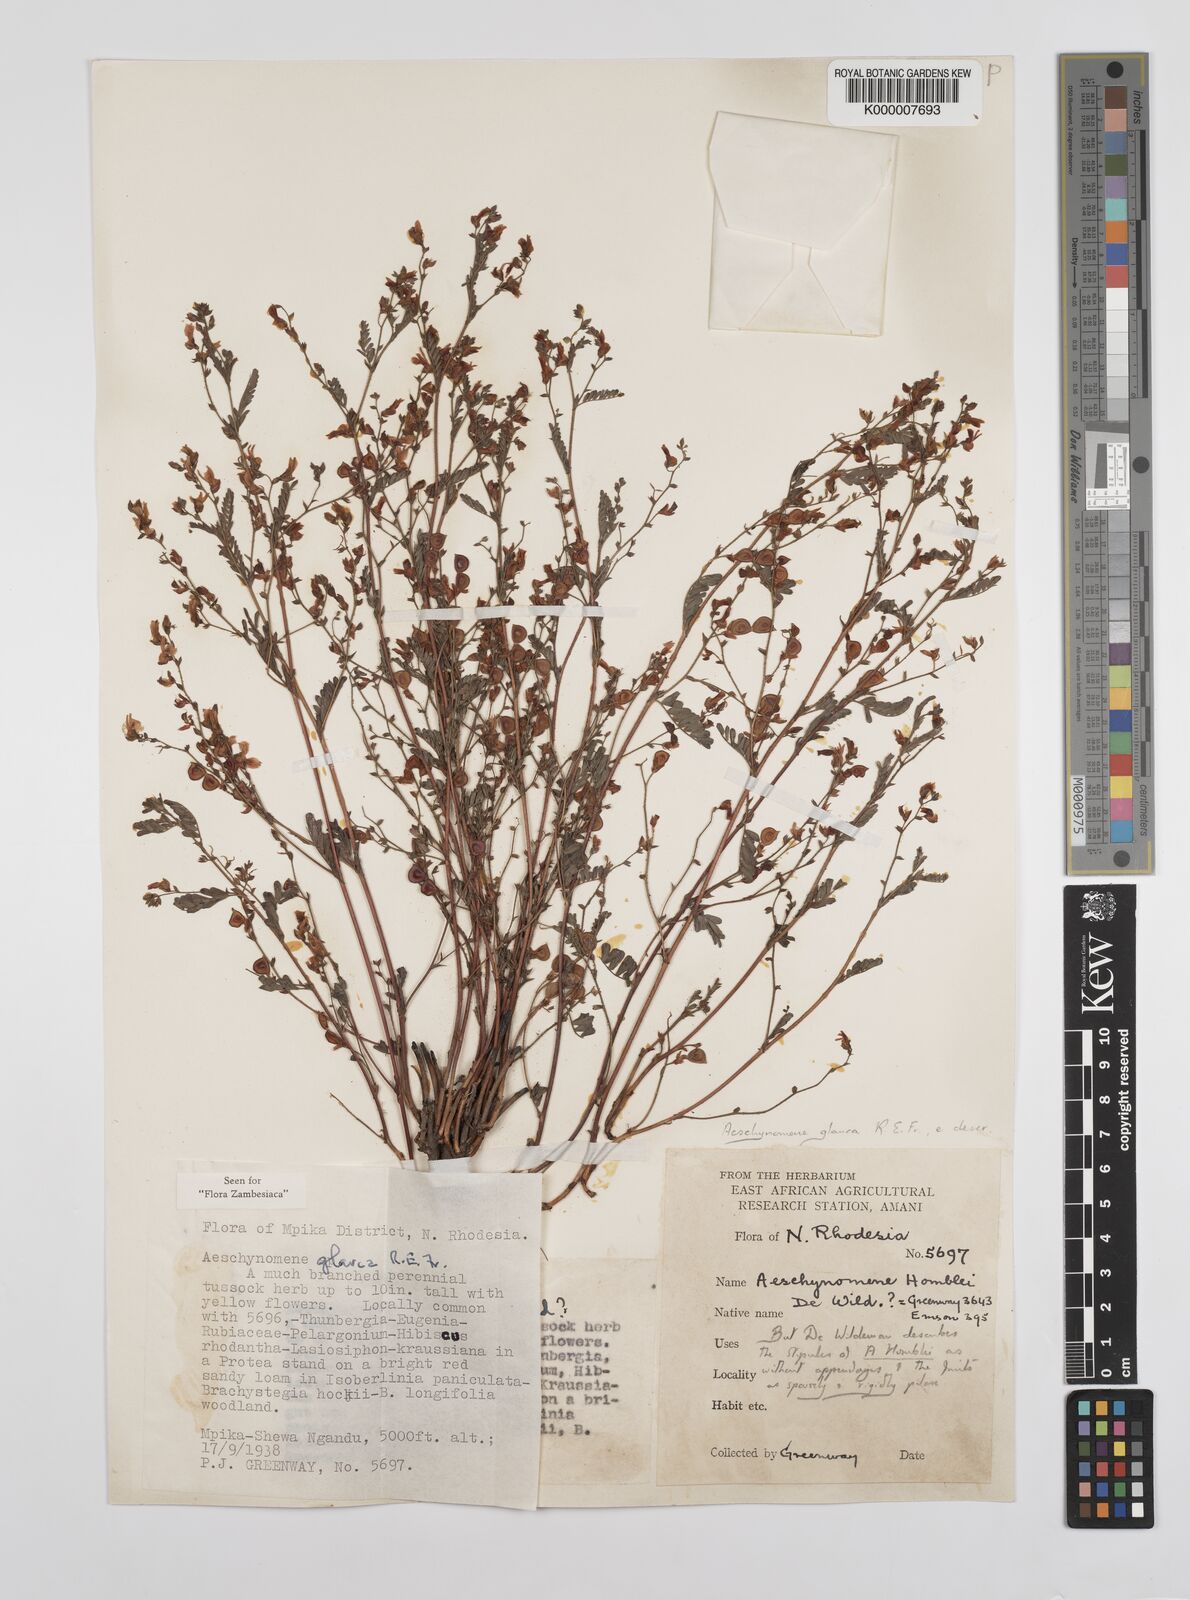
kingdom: Plantae
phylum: Tracheophyta
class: Magnoliopsida
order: Fabales
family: Fabaceae
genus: Aeschynomene
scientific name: Aeschynomene glauca
